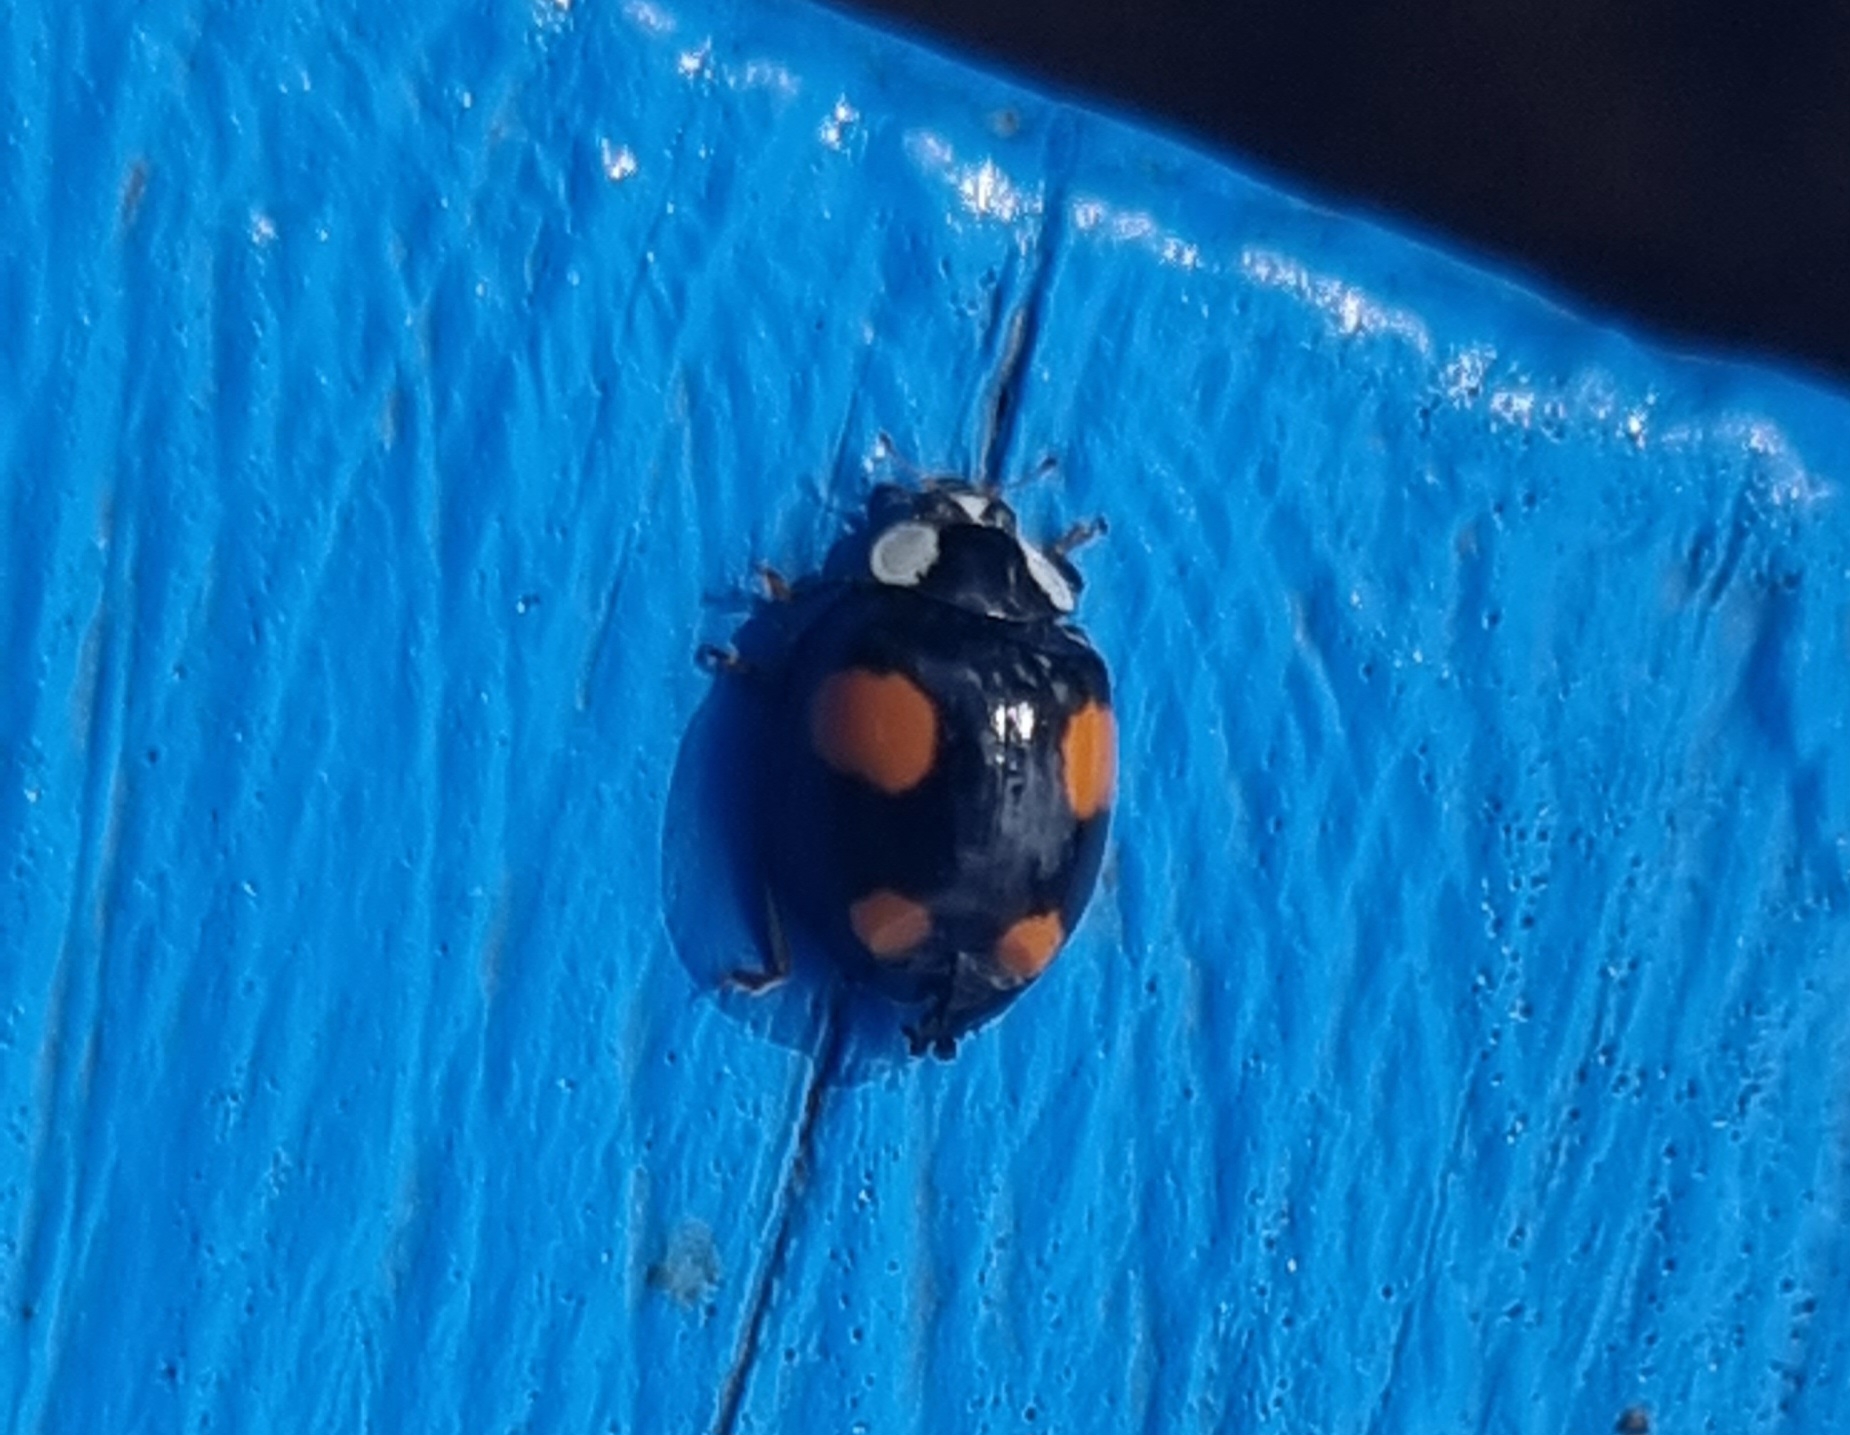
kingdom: Animalia
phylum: Arthropoda
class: Insecta
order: Coleoptera
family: Coccinellidae
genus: Harmonia
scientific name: Harmonia axyridis
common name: Harlekinmariehøne
